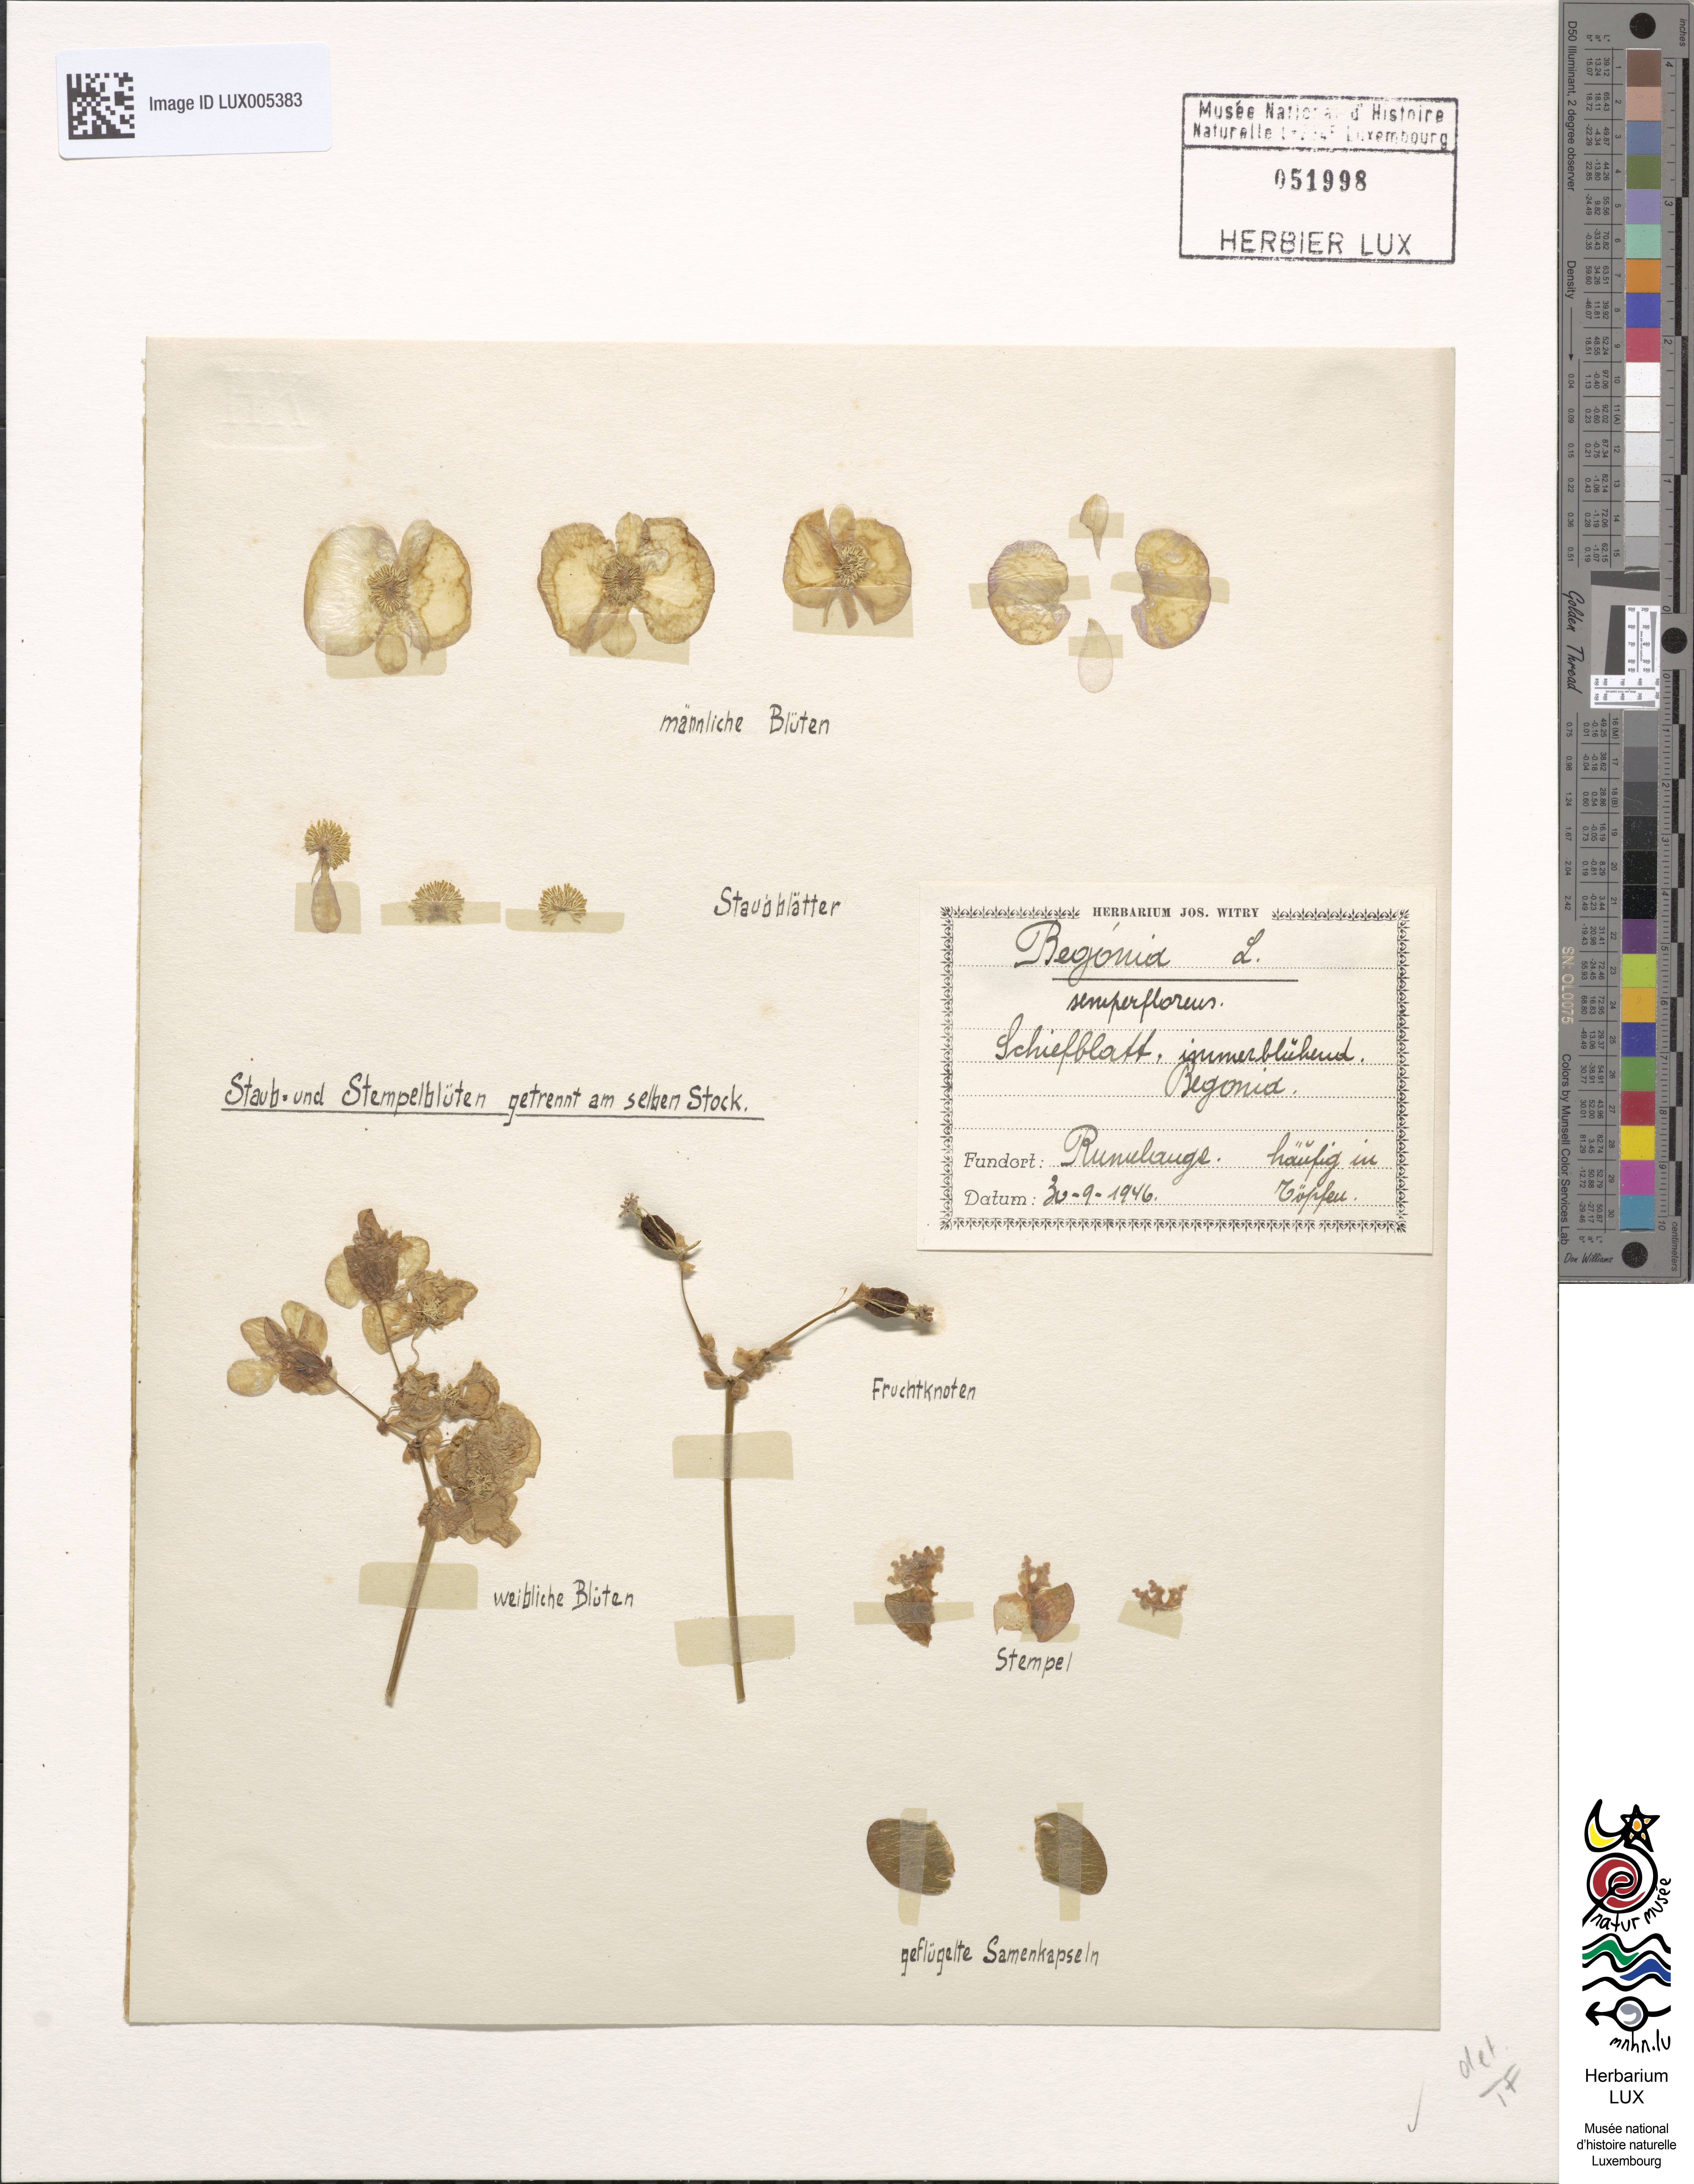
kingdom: Plantae
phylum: Tracheophyta
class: Magnoliopsida
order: Cucurbitales
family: Begoniaceae
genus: Begonia
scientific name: Begonia
